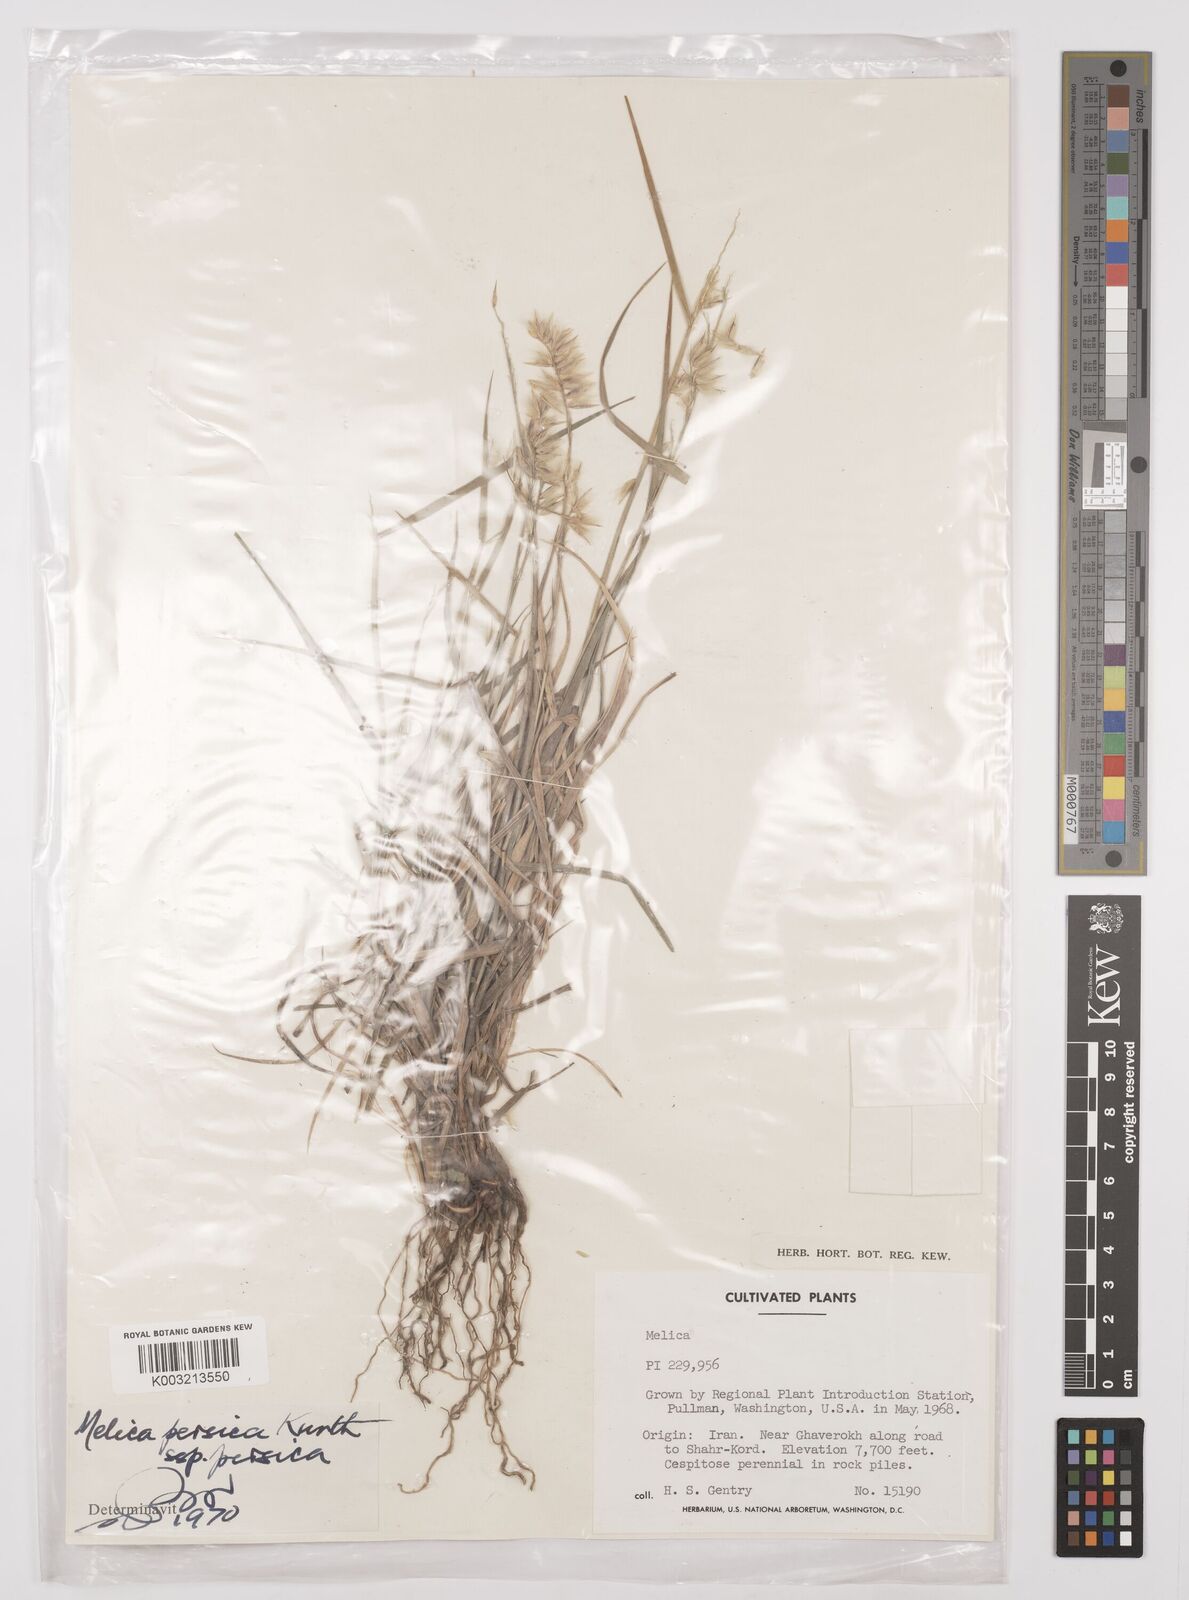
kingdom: Plantae
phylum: Tracheophyta
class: Liliopsida
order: Poales
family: Poaceae
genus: Melica
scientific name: Melica persica
